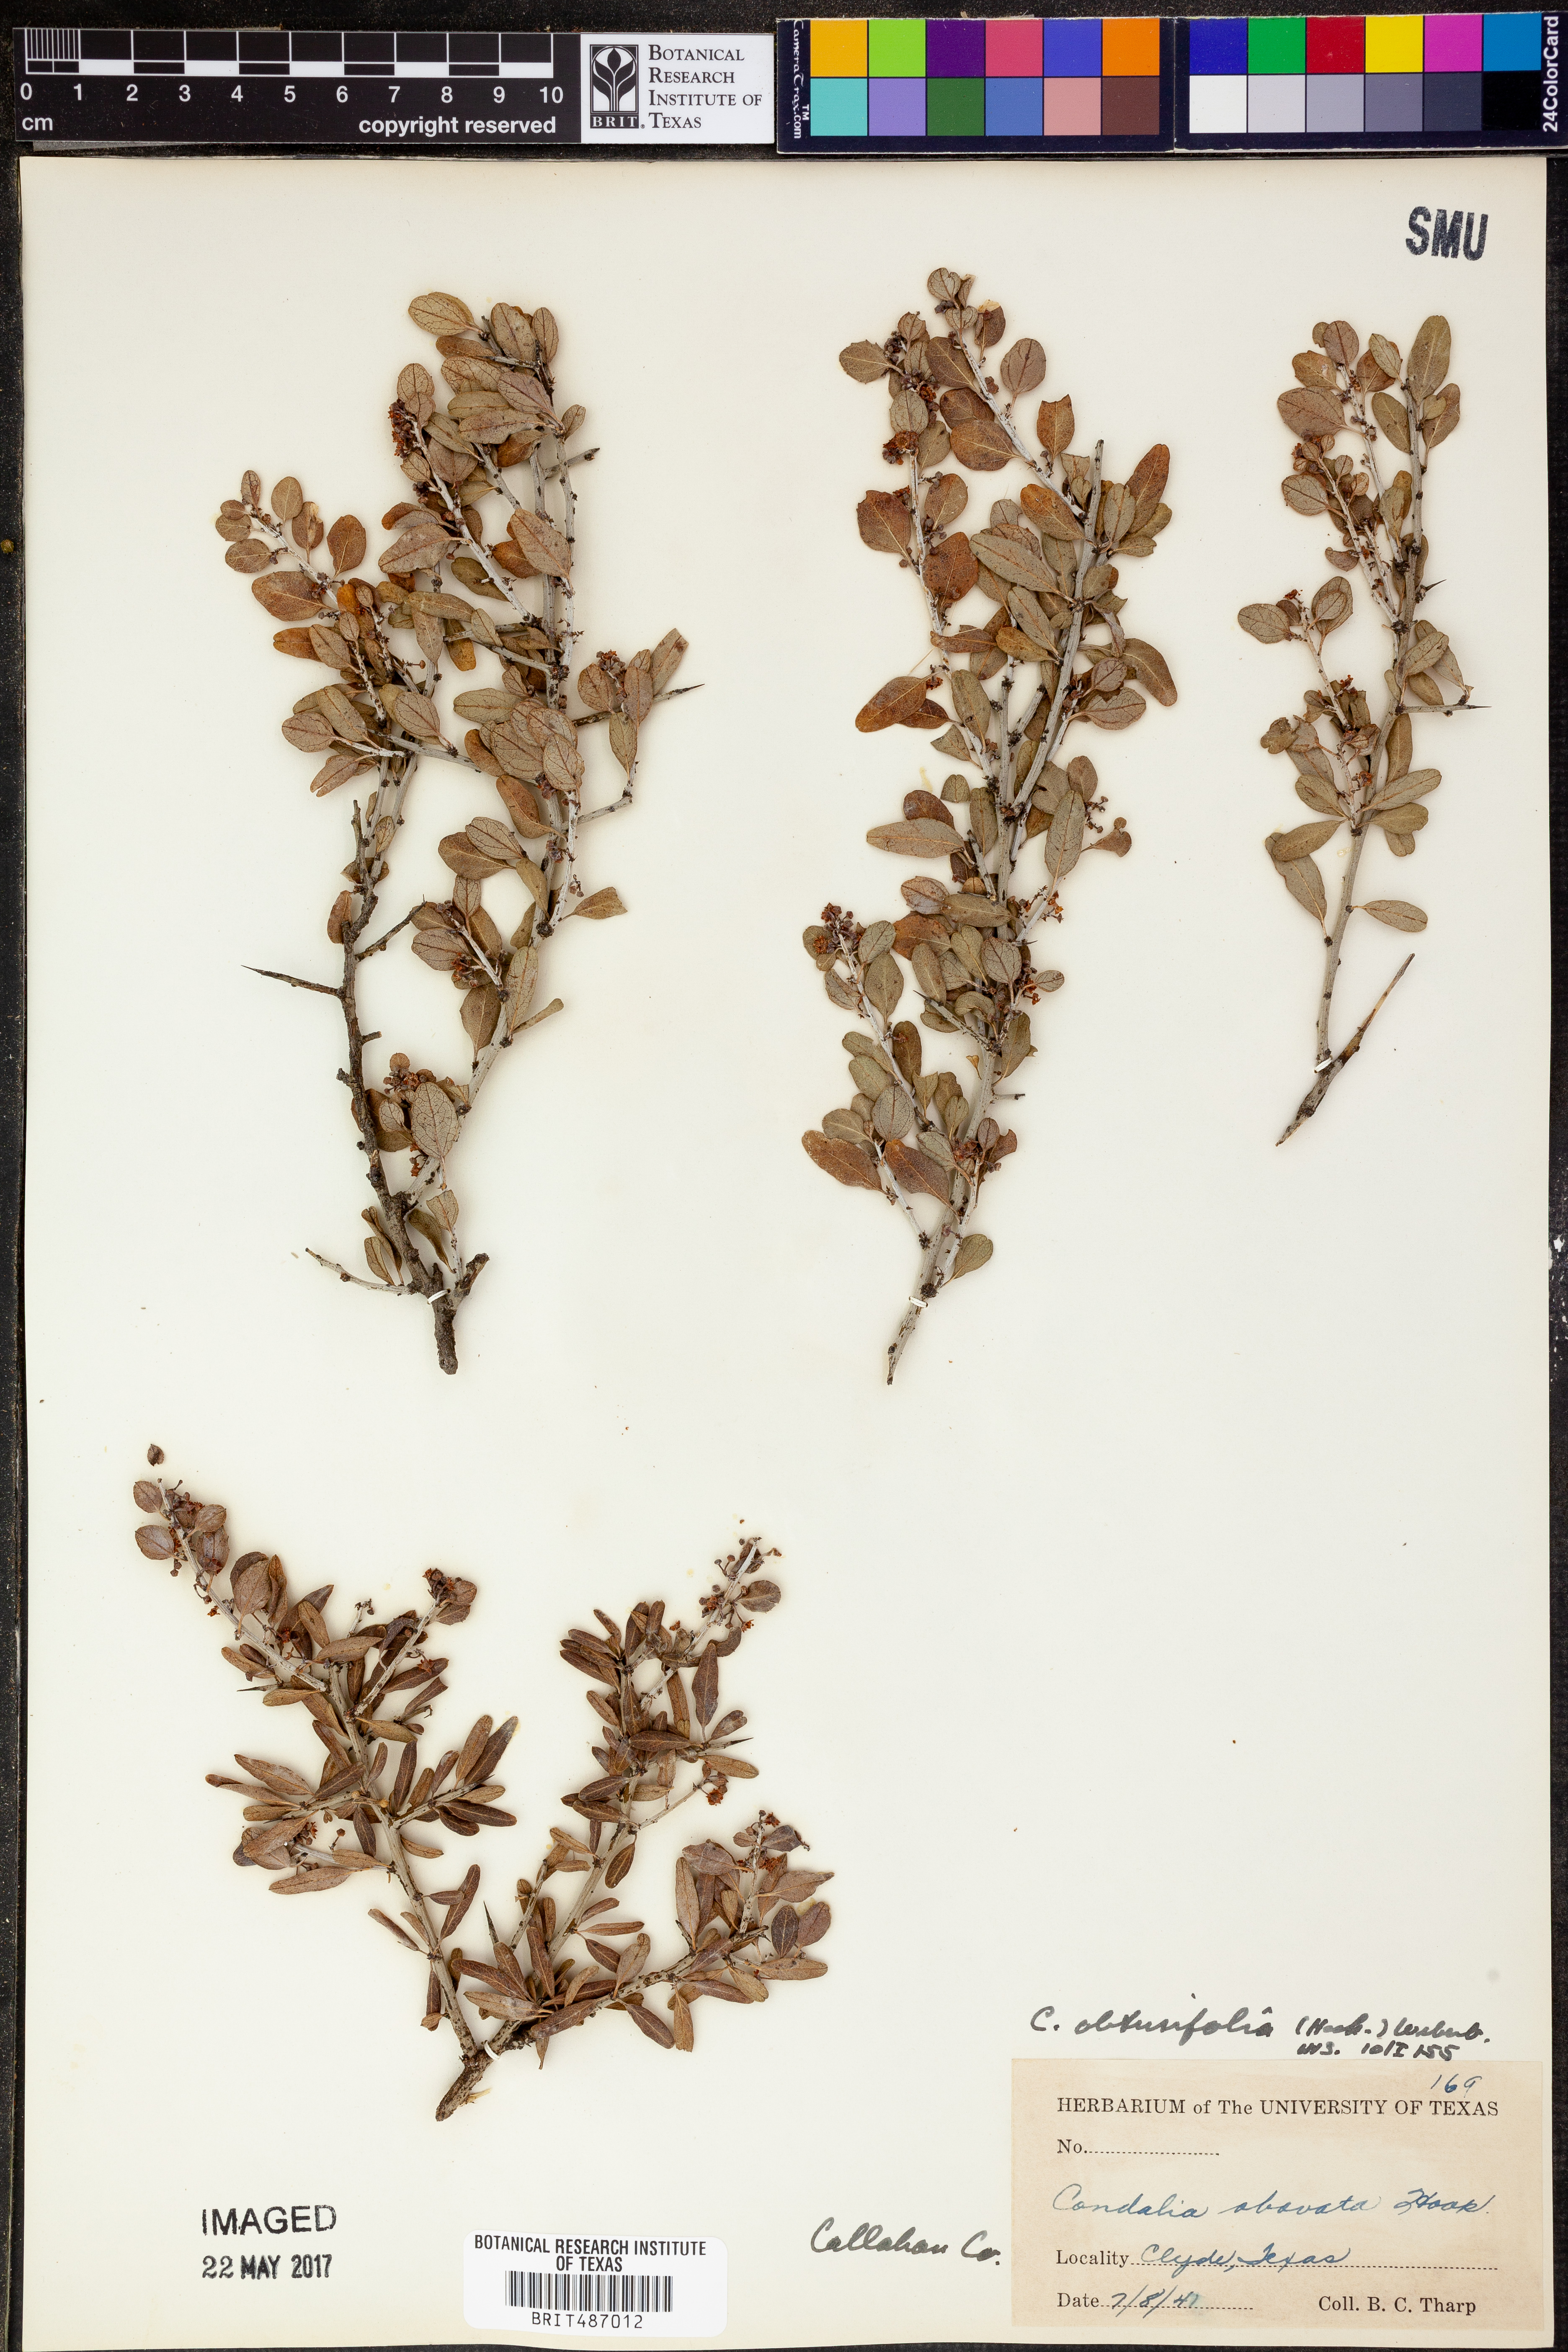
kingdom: Plantae
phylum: Tracheophyta
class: Magnoliopsida
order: Rosales
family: Rhamnaceae
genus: Sarcomphalus
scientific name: Sarcomphalus obtusifolius
